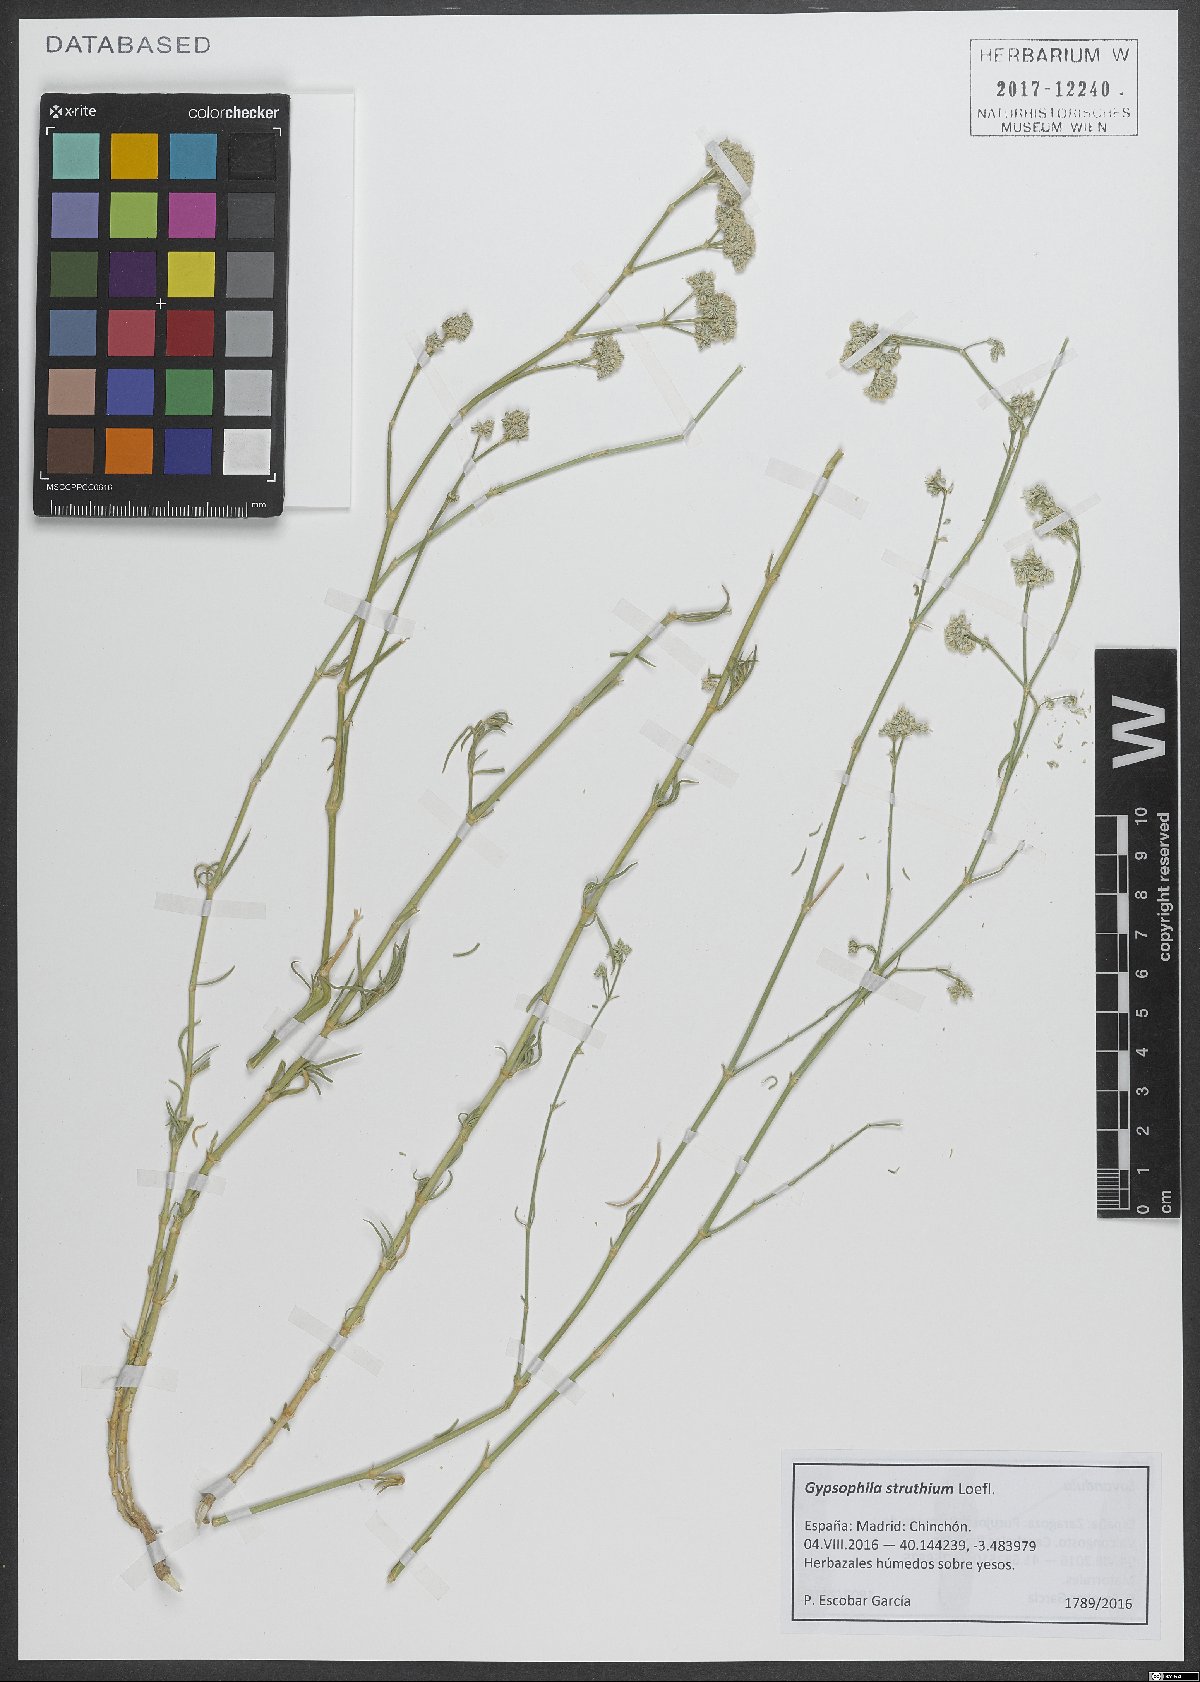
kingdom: Plantae
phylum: Tracheophyta
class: Magnoliopsida
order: Caryophyllales
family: Caryophyllaceae
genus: Gypsophila
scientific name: Gypsophila struthium
